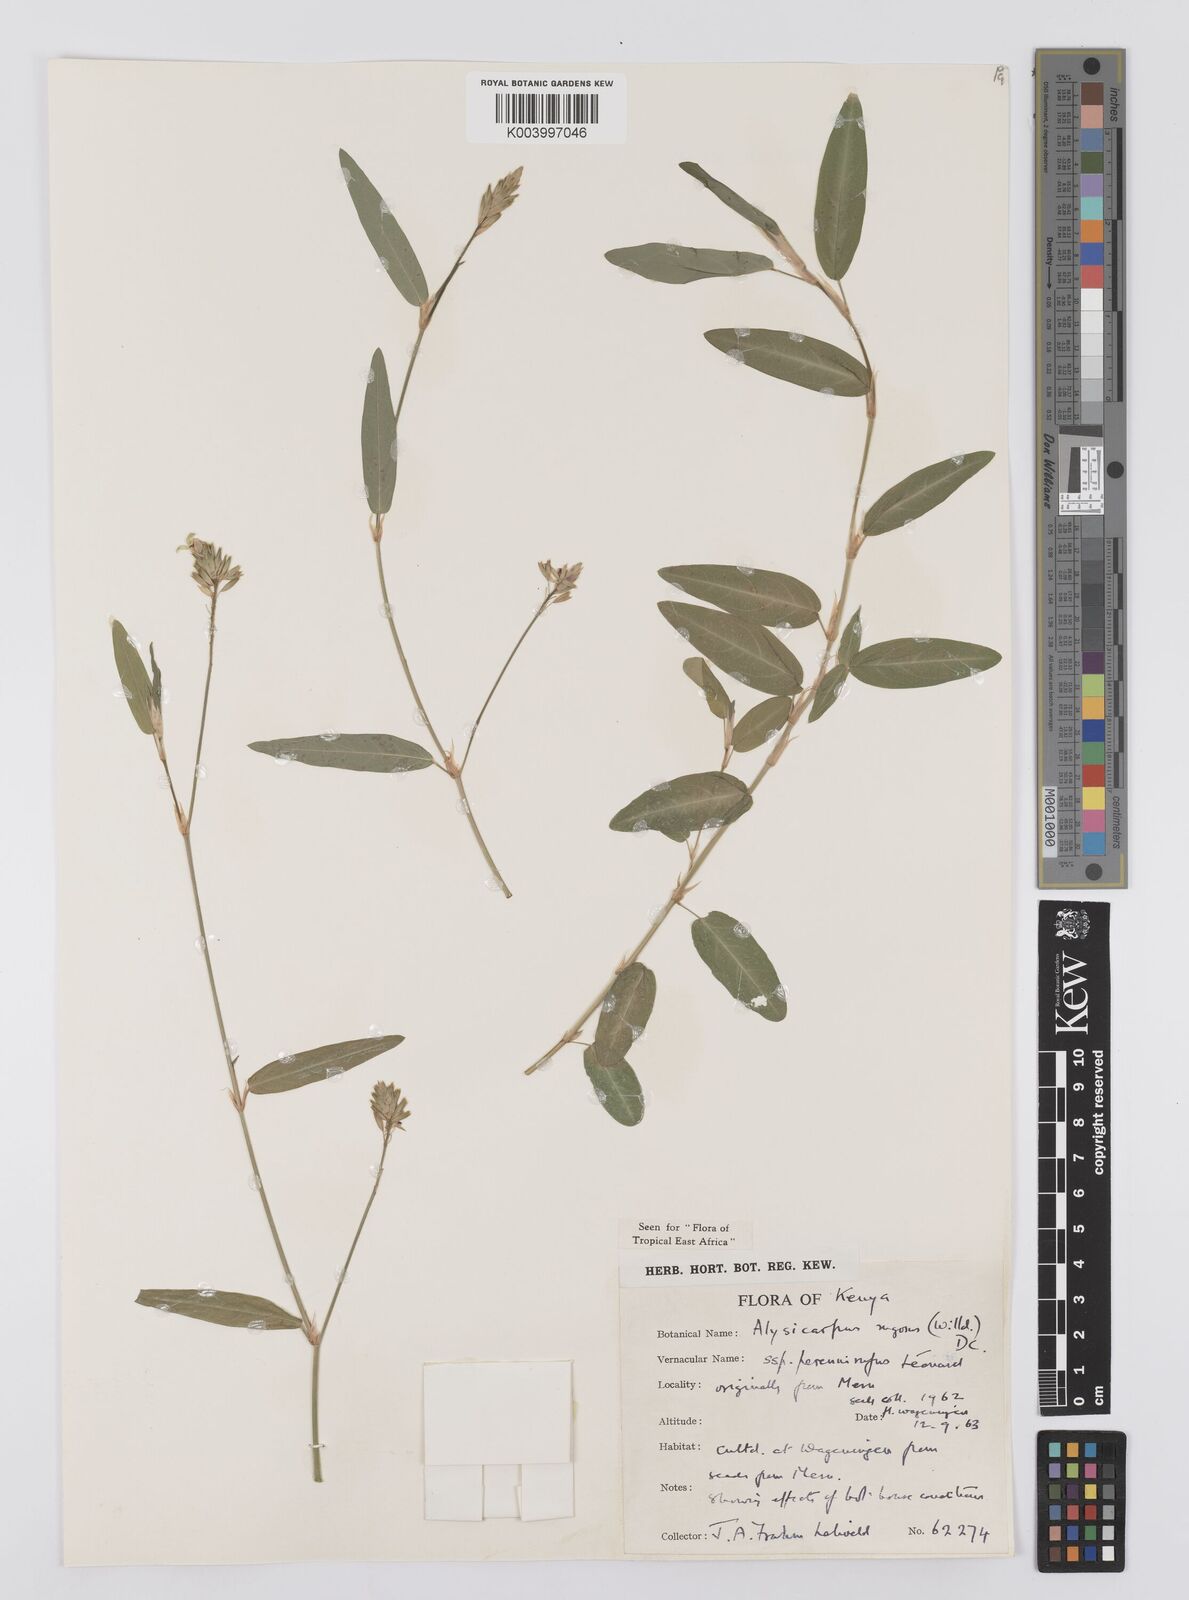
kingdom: Plantae
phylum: Tracheophyta
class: Magnoliopsida
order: Fabales
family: Fabaceae
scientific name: Fabaceae
